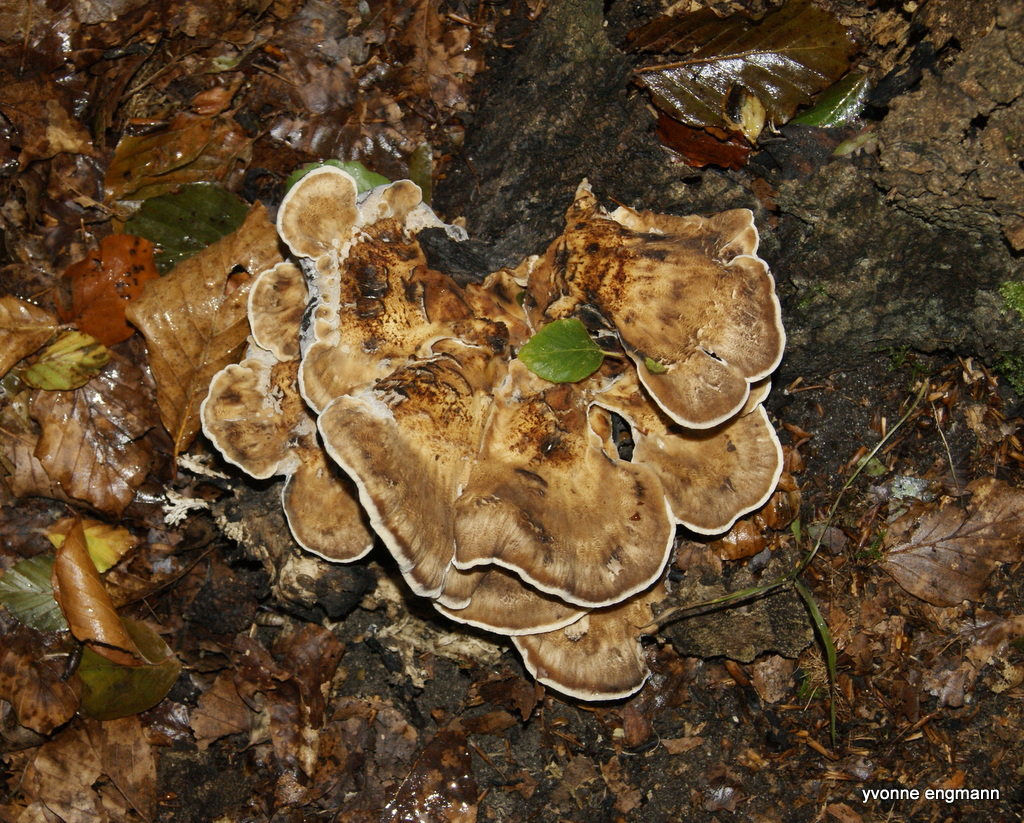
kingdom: Fungi
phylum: Basidiomycota
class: Agaricomycetes
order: Polyporales
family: Meripilaceae
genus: Meripilus
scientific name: Meripilus giganteus
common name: kæmpeporesvamp
